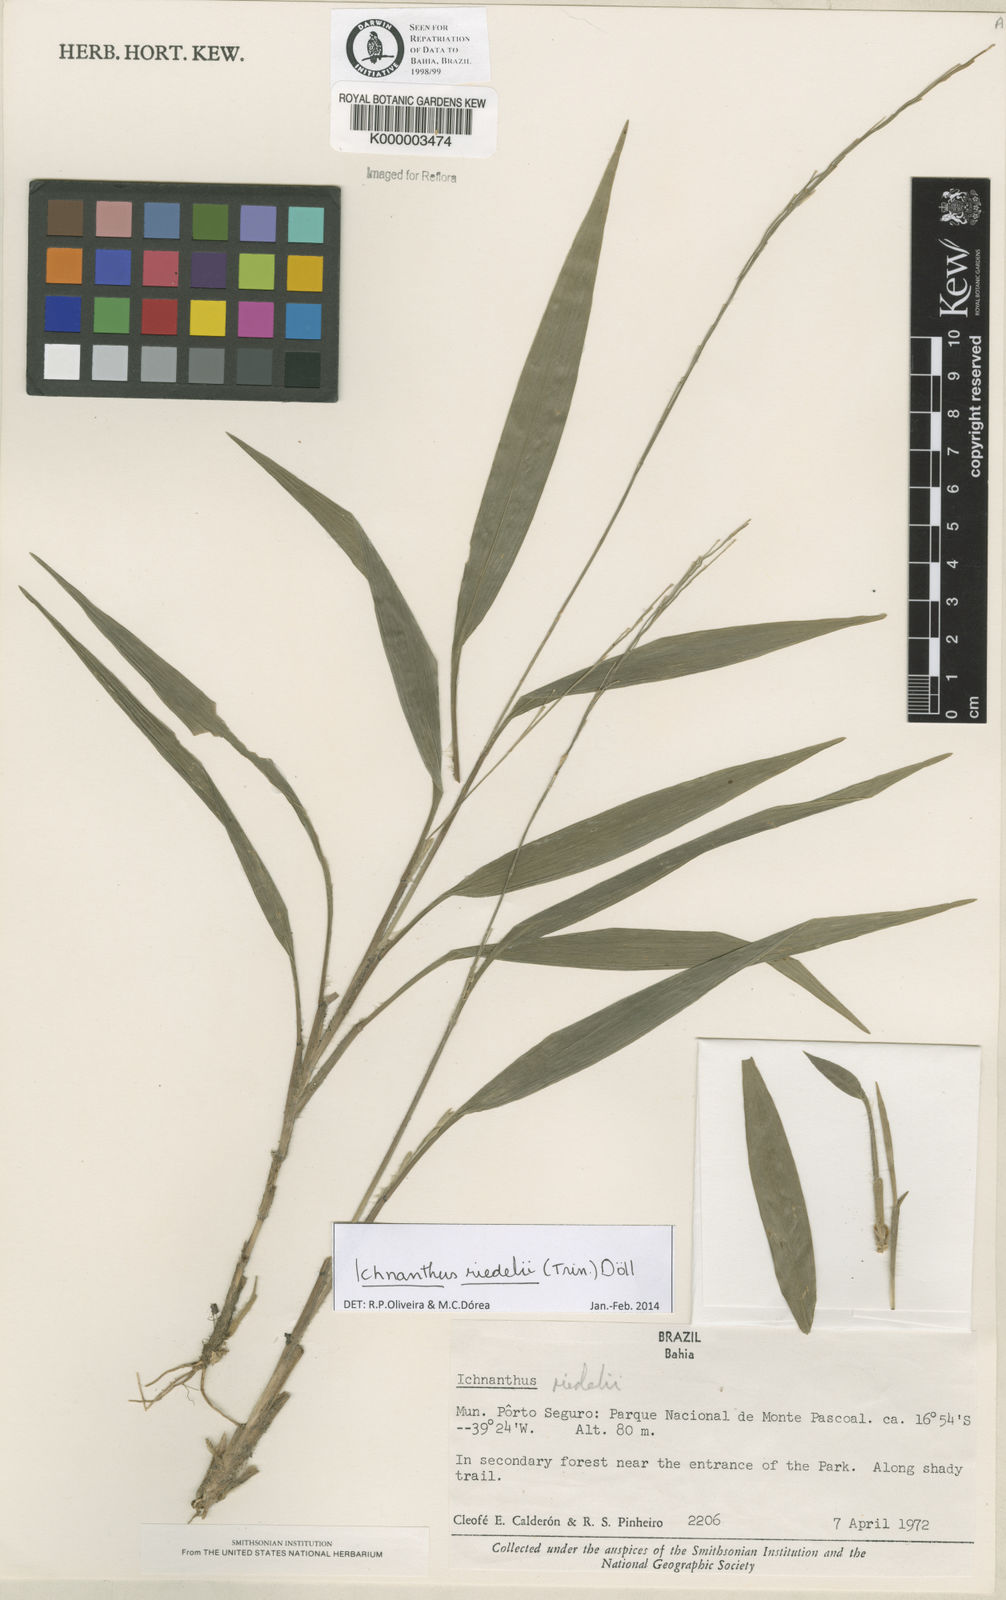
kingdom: Plantae
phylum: Tracheophyta
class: Liliopsida
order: Poales
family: Poaceae
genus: Ichnanthus
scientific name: Ichnanthus
